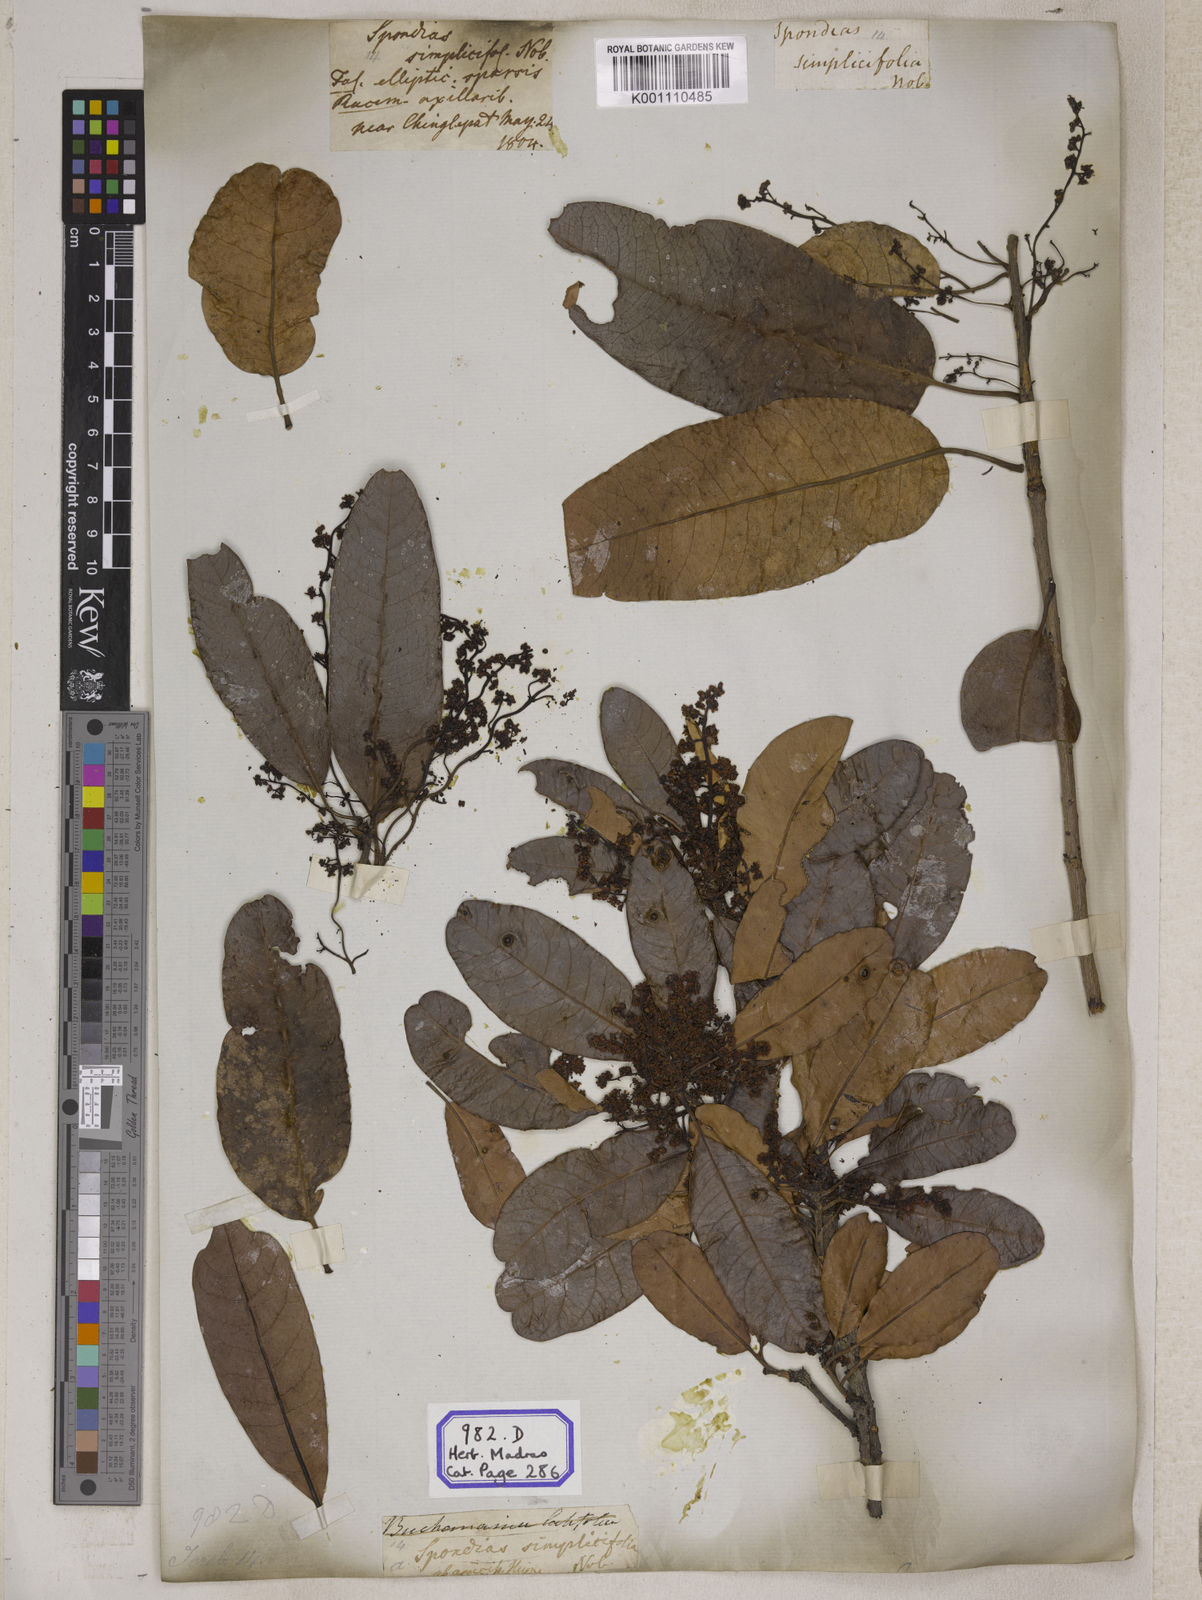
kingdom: Plantae
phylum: Tracheophyta
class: Magnoliopsida
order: Sapindales
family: Anacardiaceae
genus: Buchanania
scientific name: Buchanania axillaris
